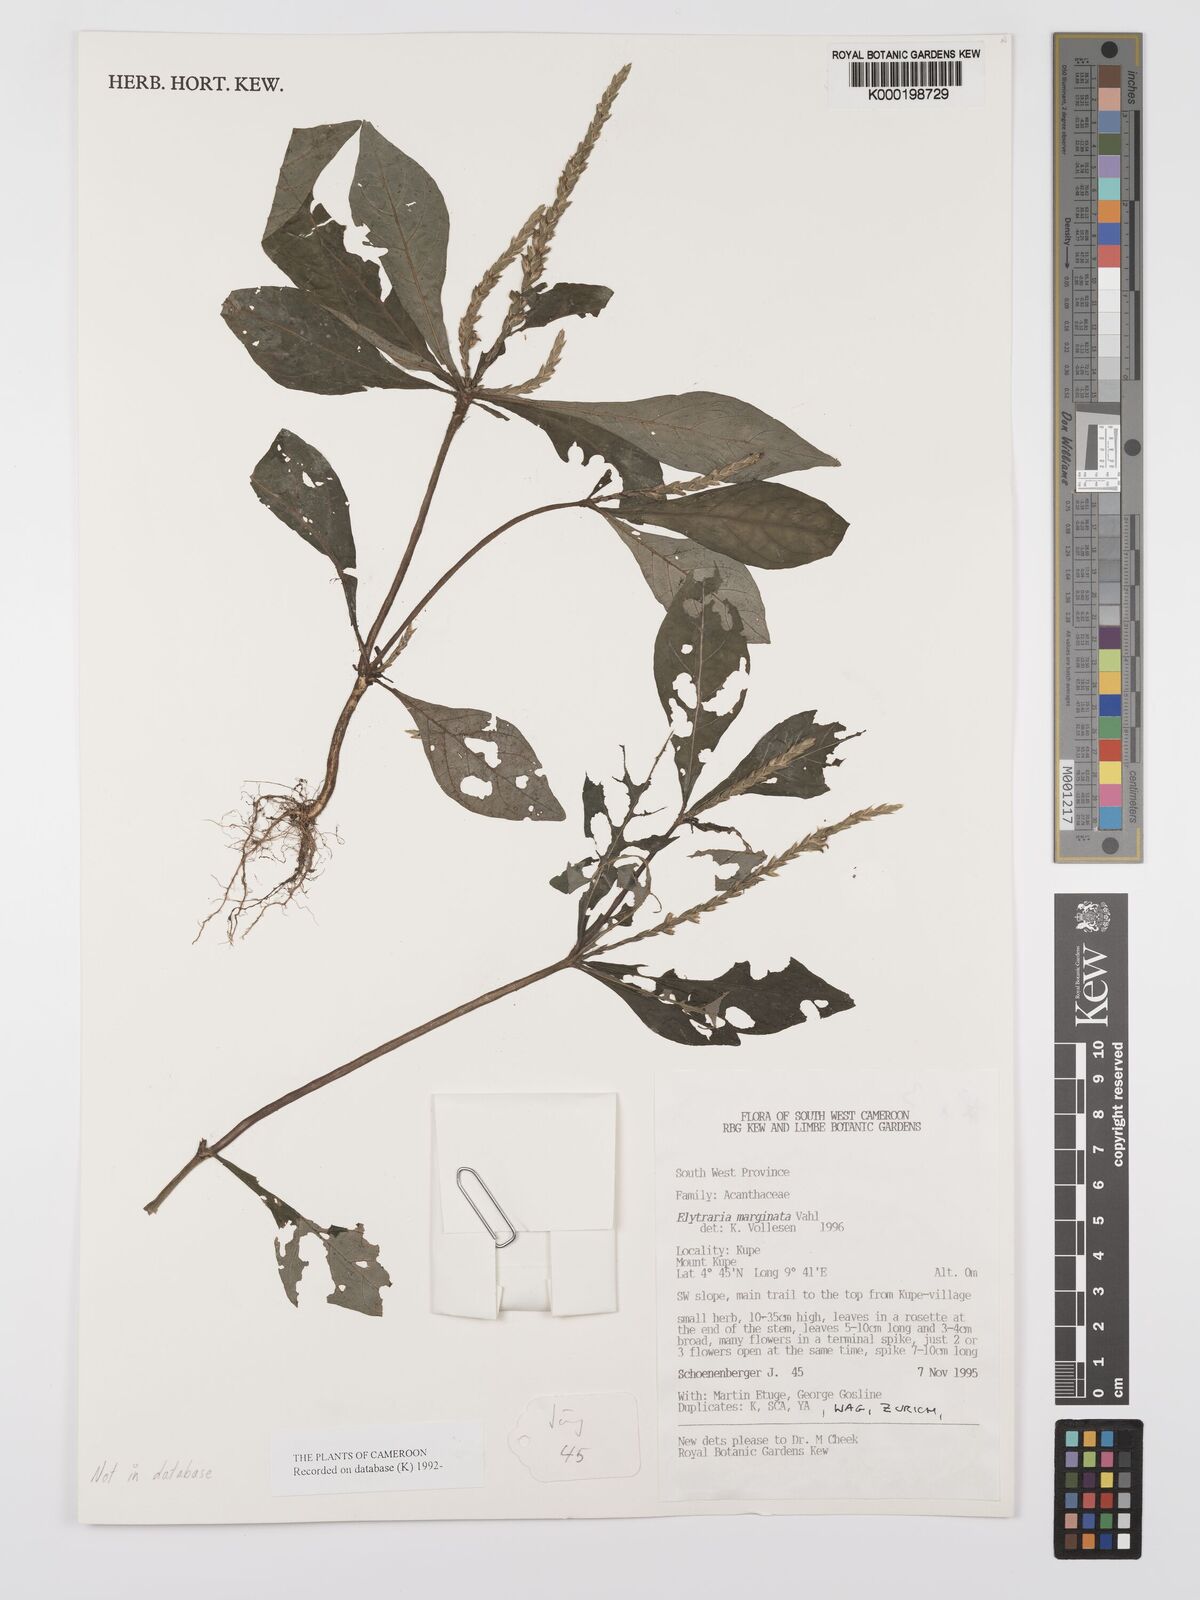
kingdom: Plantae
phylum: Tracheophyta
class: Magnoliopsida
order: Lamiales
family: Acanthaceae
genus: Elytraria
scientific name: Elytraria marginata
